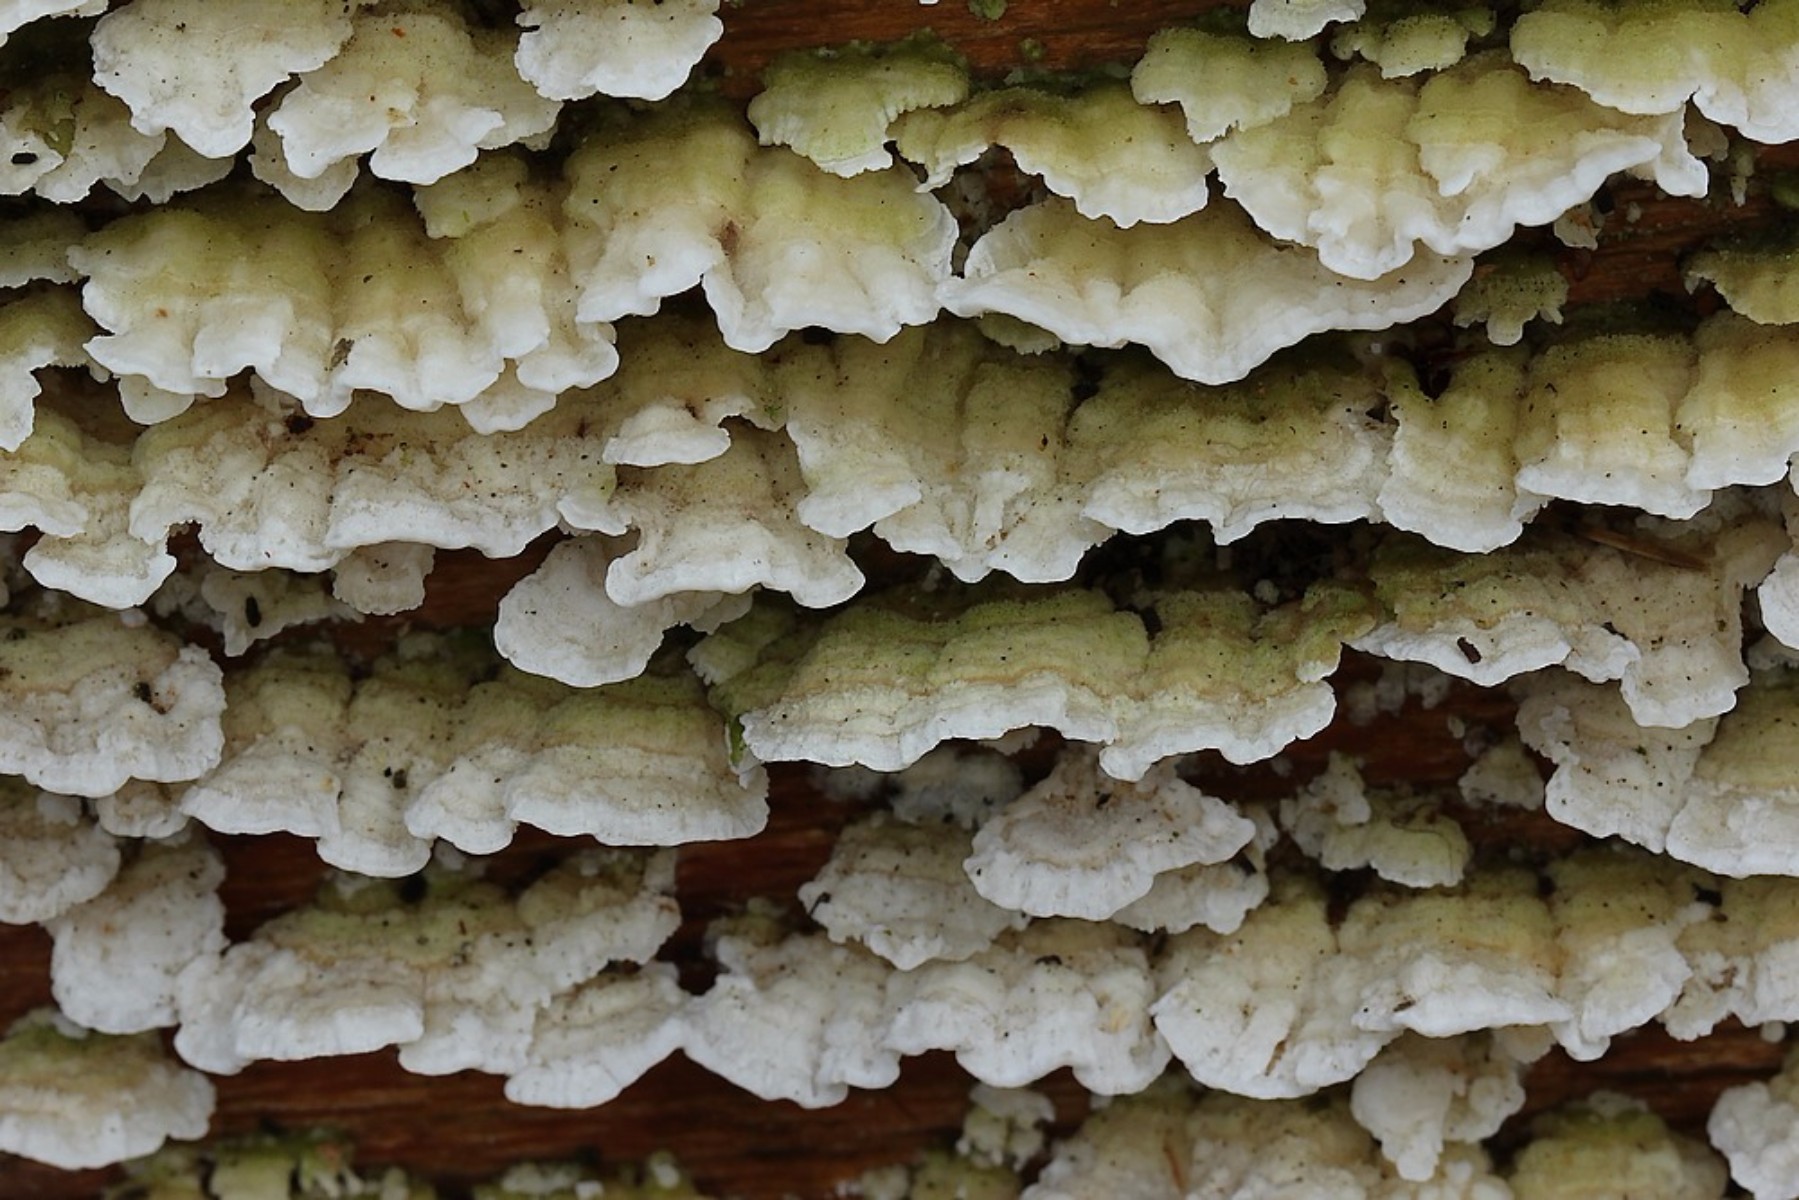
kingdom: Fungi
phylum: Basidiomycota
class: Agaricomycetes
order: Polyporales
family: Polyporaceae
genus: Trichaptum
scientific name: Trichaptum
